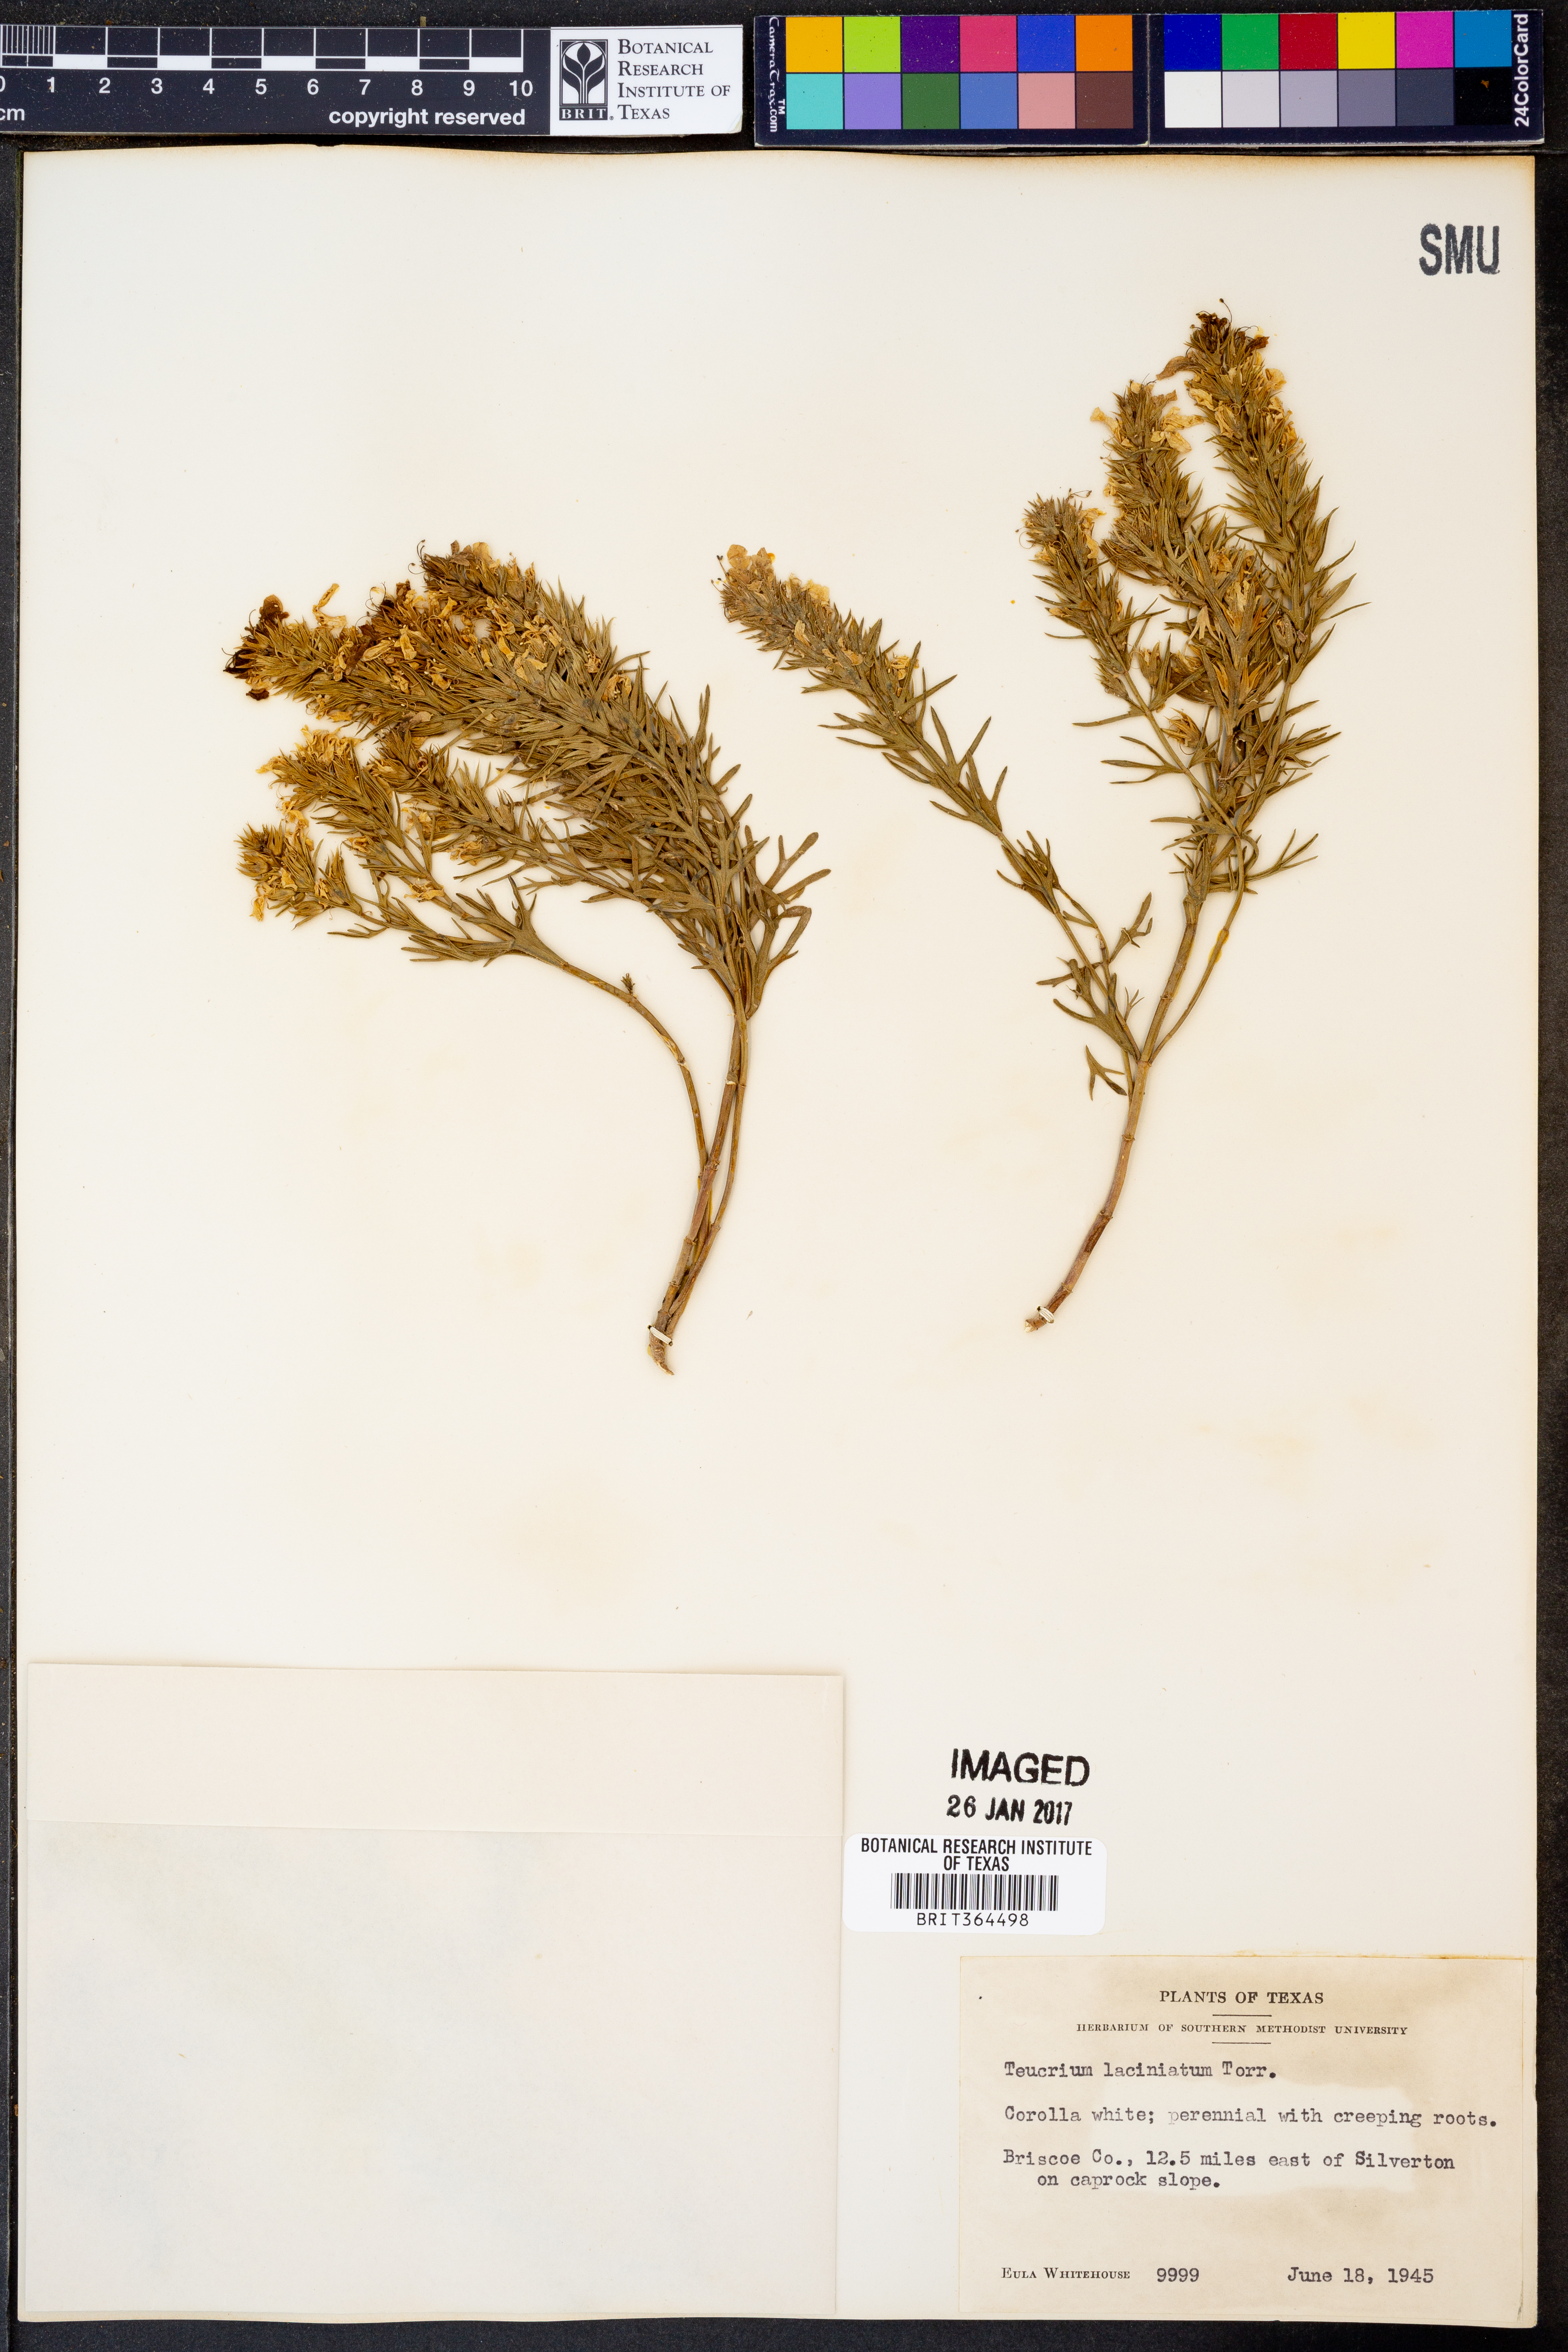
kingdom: Plantae
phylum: Tracheophyta
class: Magnoliopsida
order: Lamiales
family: Lamiaceae
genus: Teucrium
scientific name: Teucrium laciniatum
